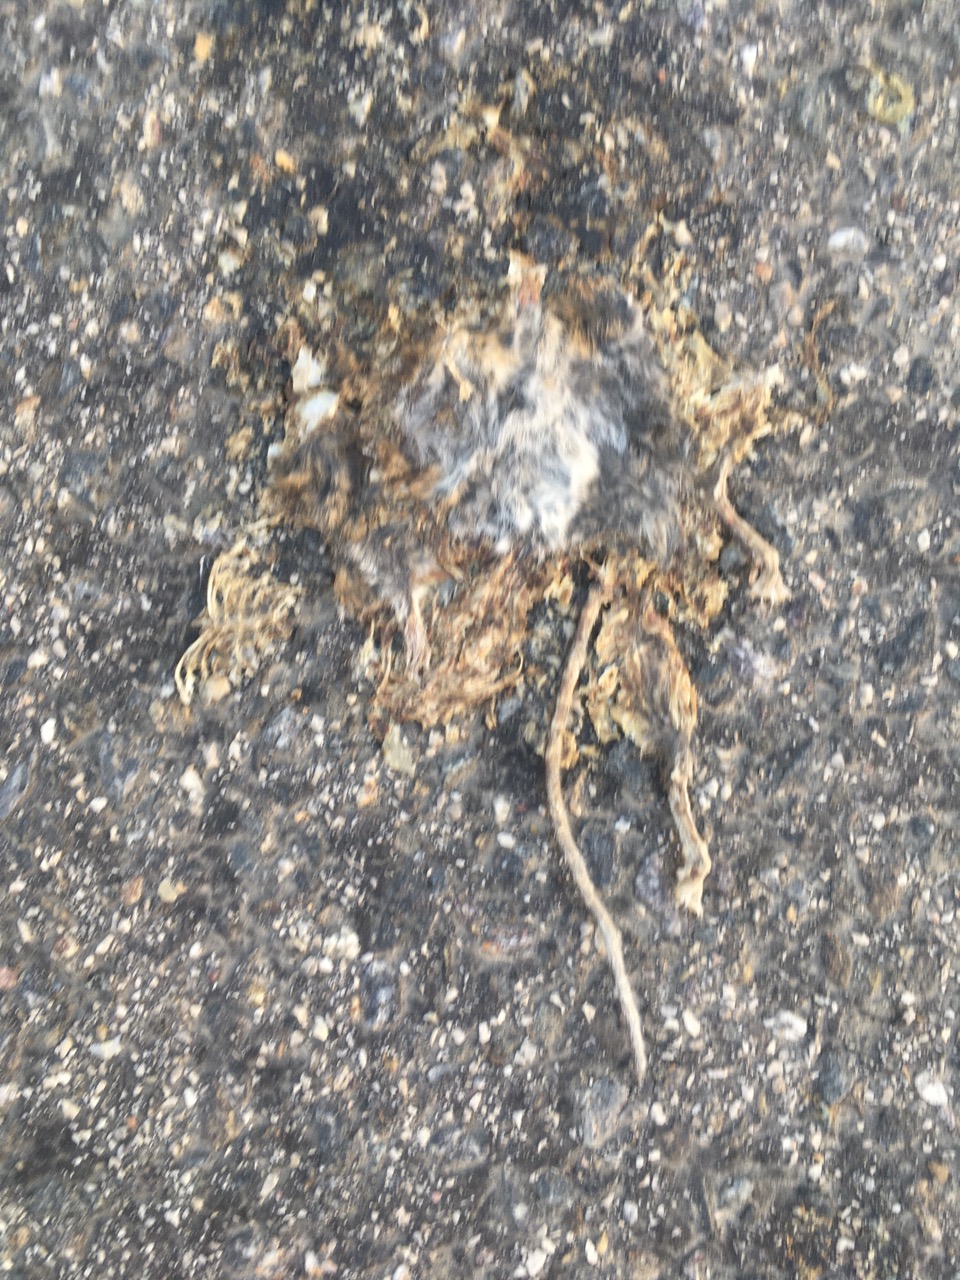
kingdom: Animalia
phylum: Chordata
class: Mammalia
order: Rodentia
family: Muridae
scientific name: Muridae
